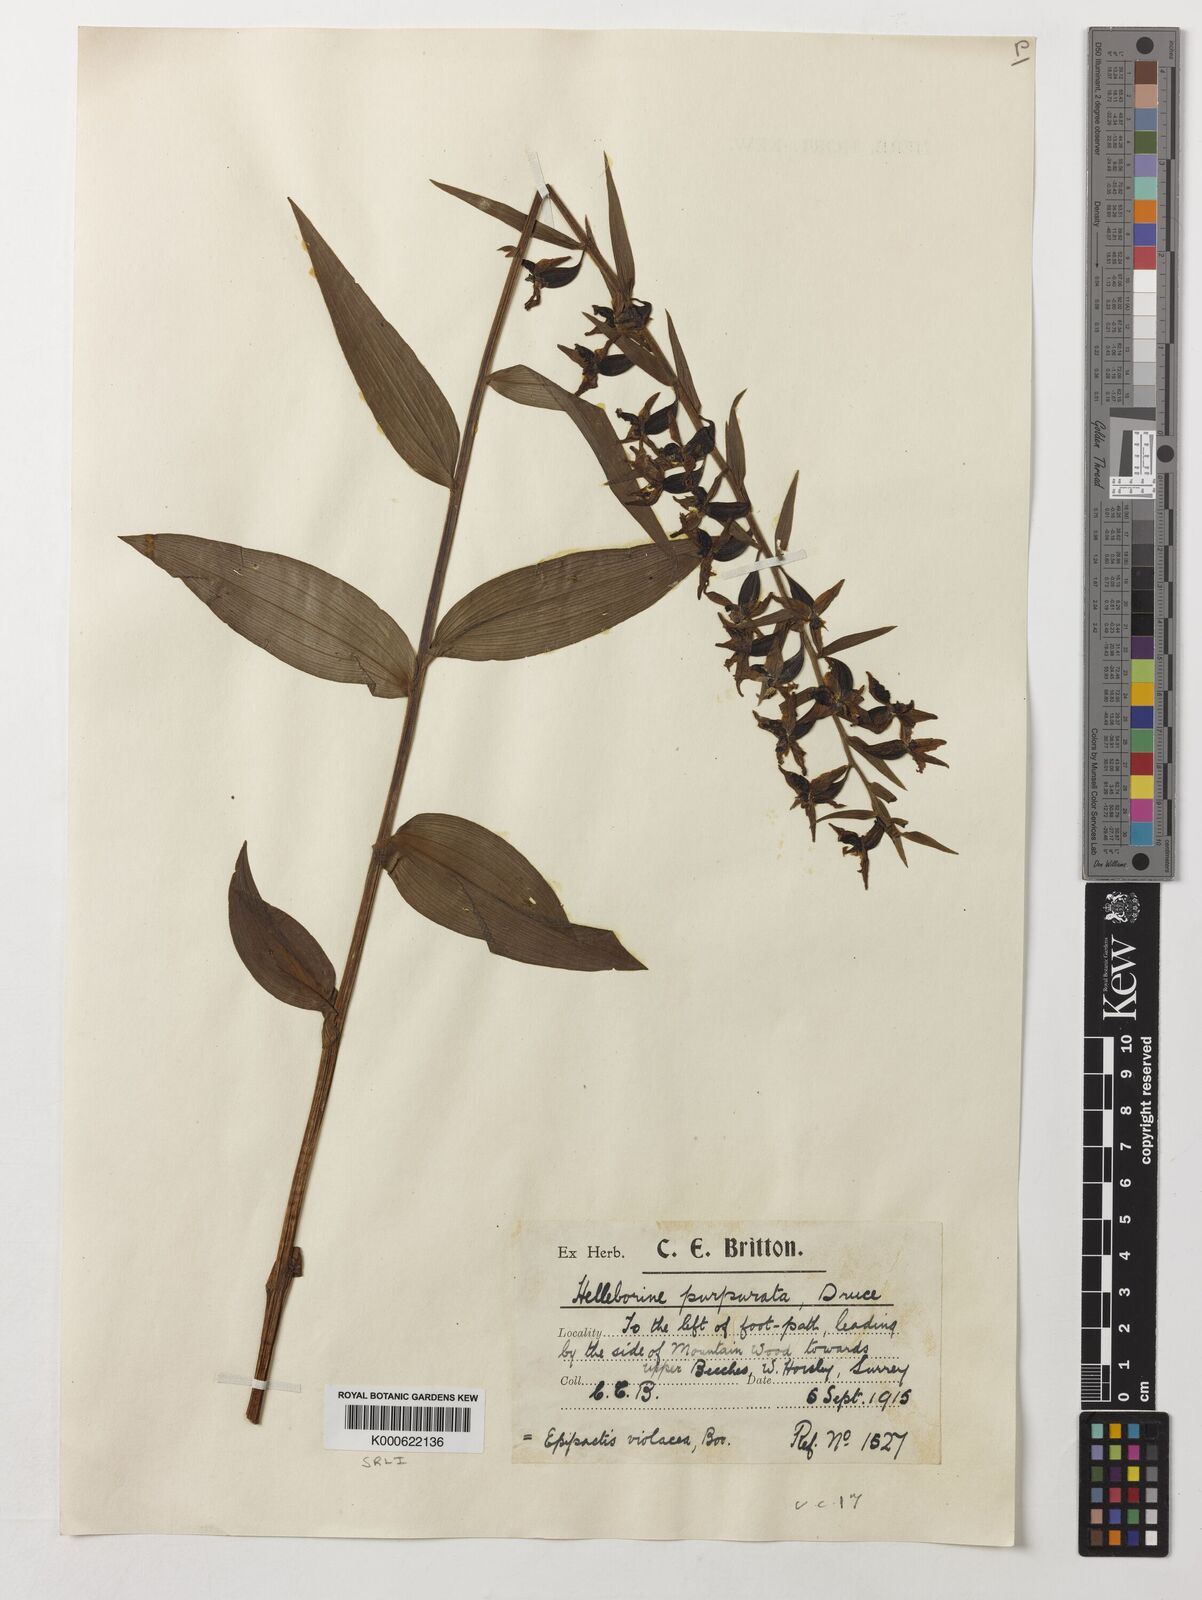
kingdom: Plantae
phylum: Tracheophyta
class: Liliopsida
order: Asparagales
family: Orchidaceae
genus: Epipactis
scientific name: Epipactis purpurata
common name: Violet helleborine
